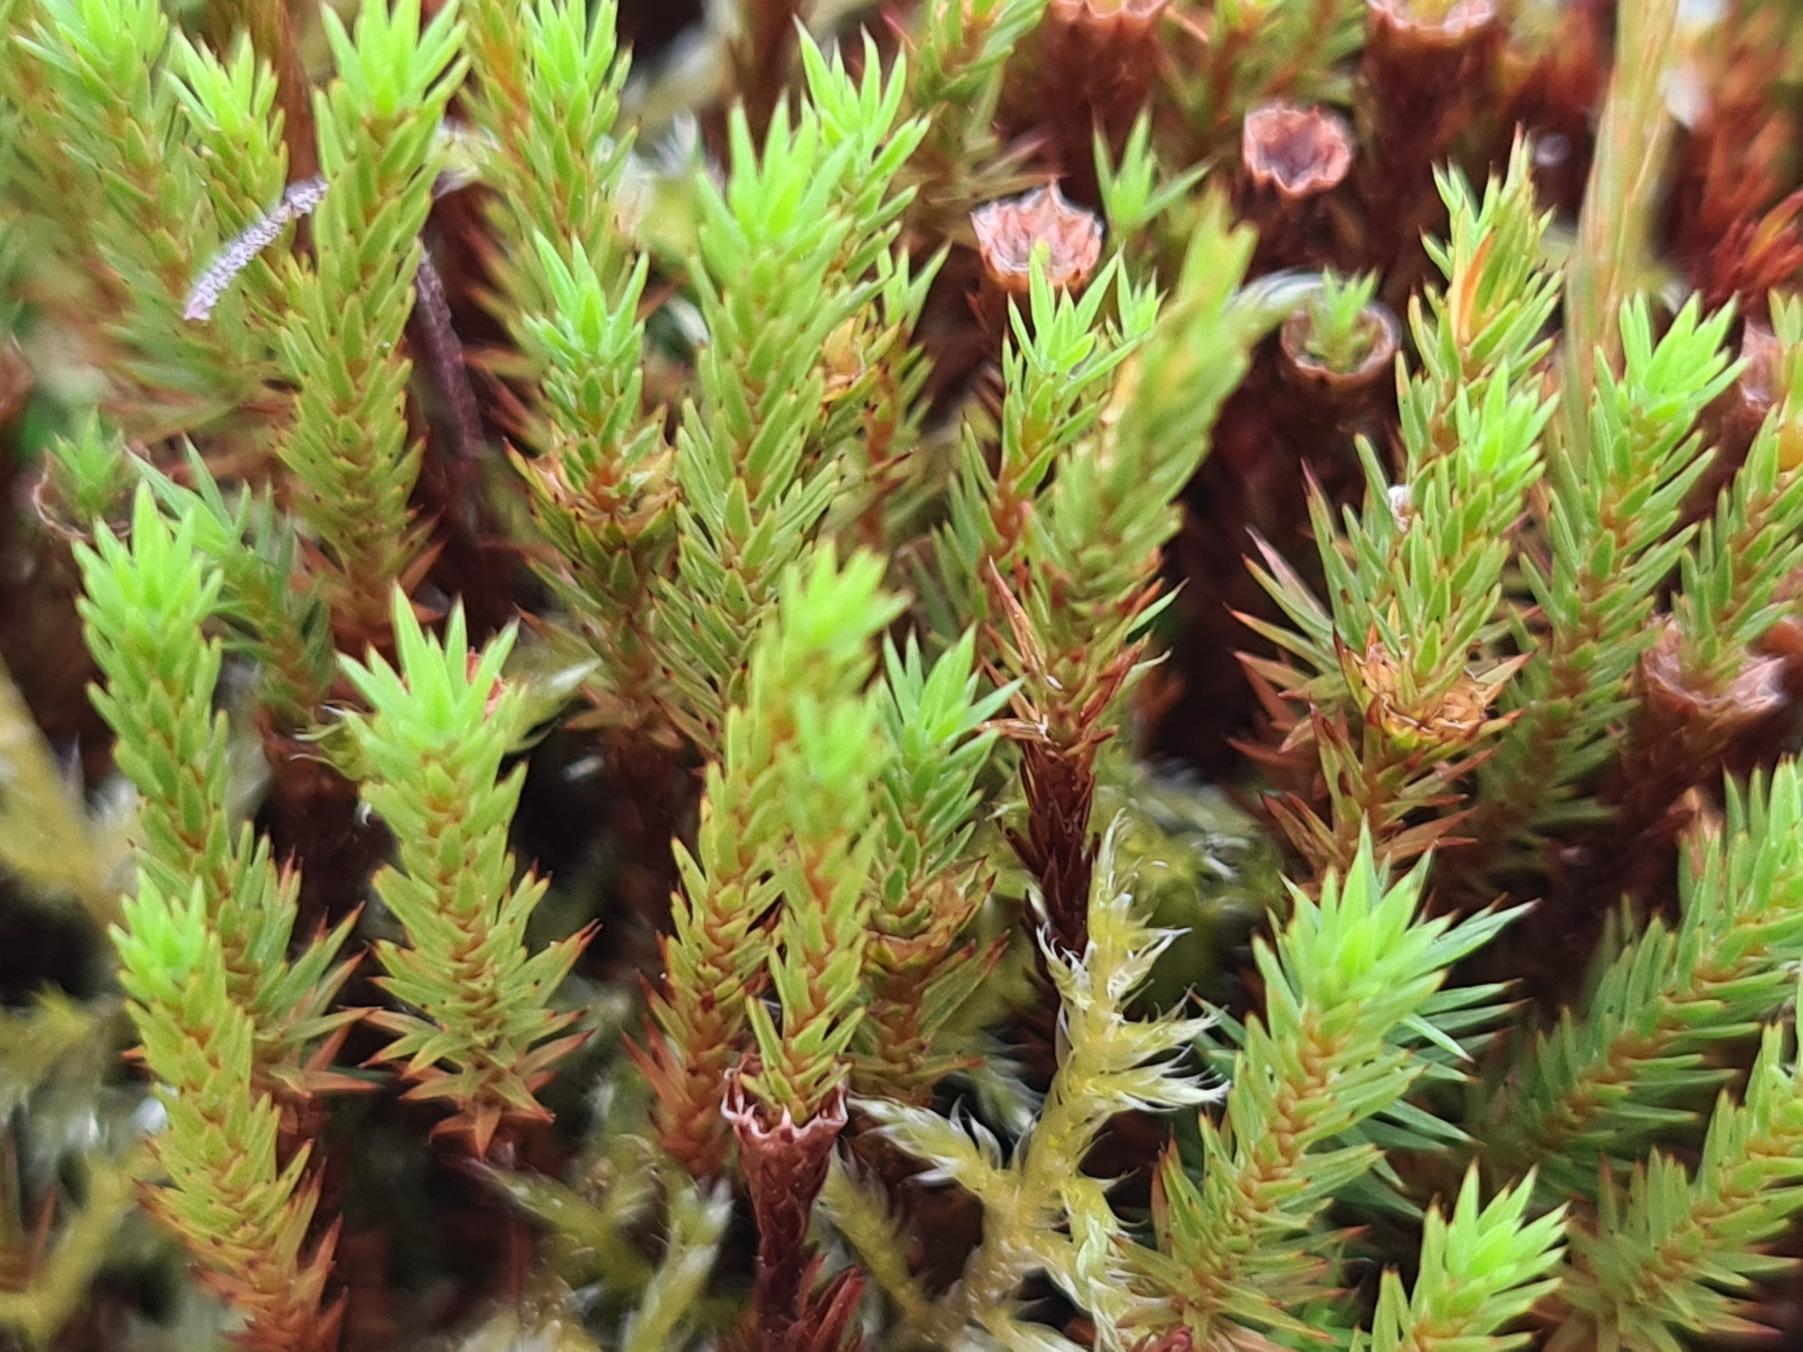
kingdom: Plantae
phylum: Bryophyta
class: Polytrichopsida
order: Polytrichales
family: Polytrichaceae
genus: Polytrichum
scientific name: Polytrichum strictum
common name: Filtstænglet jomfruhår
